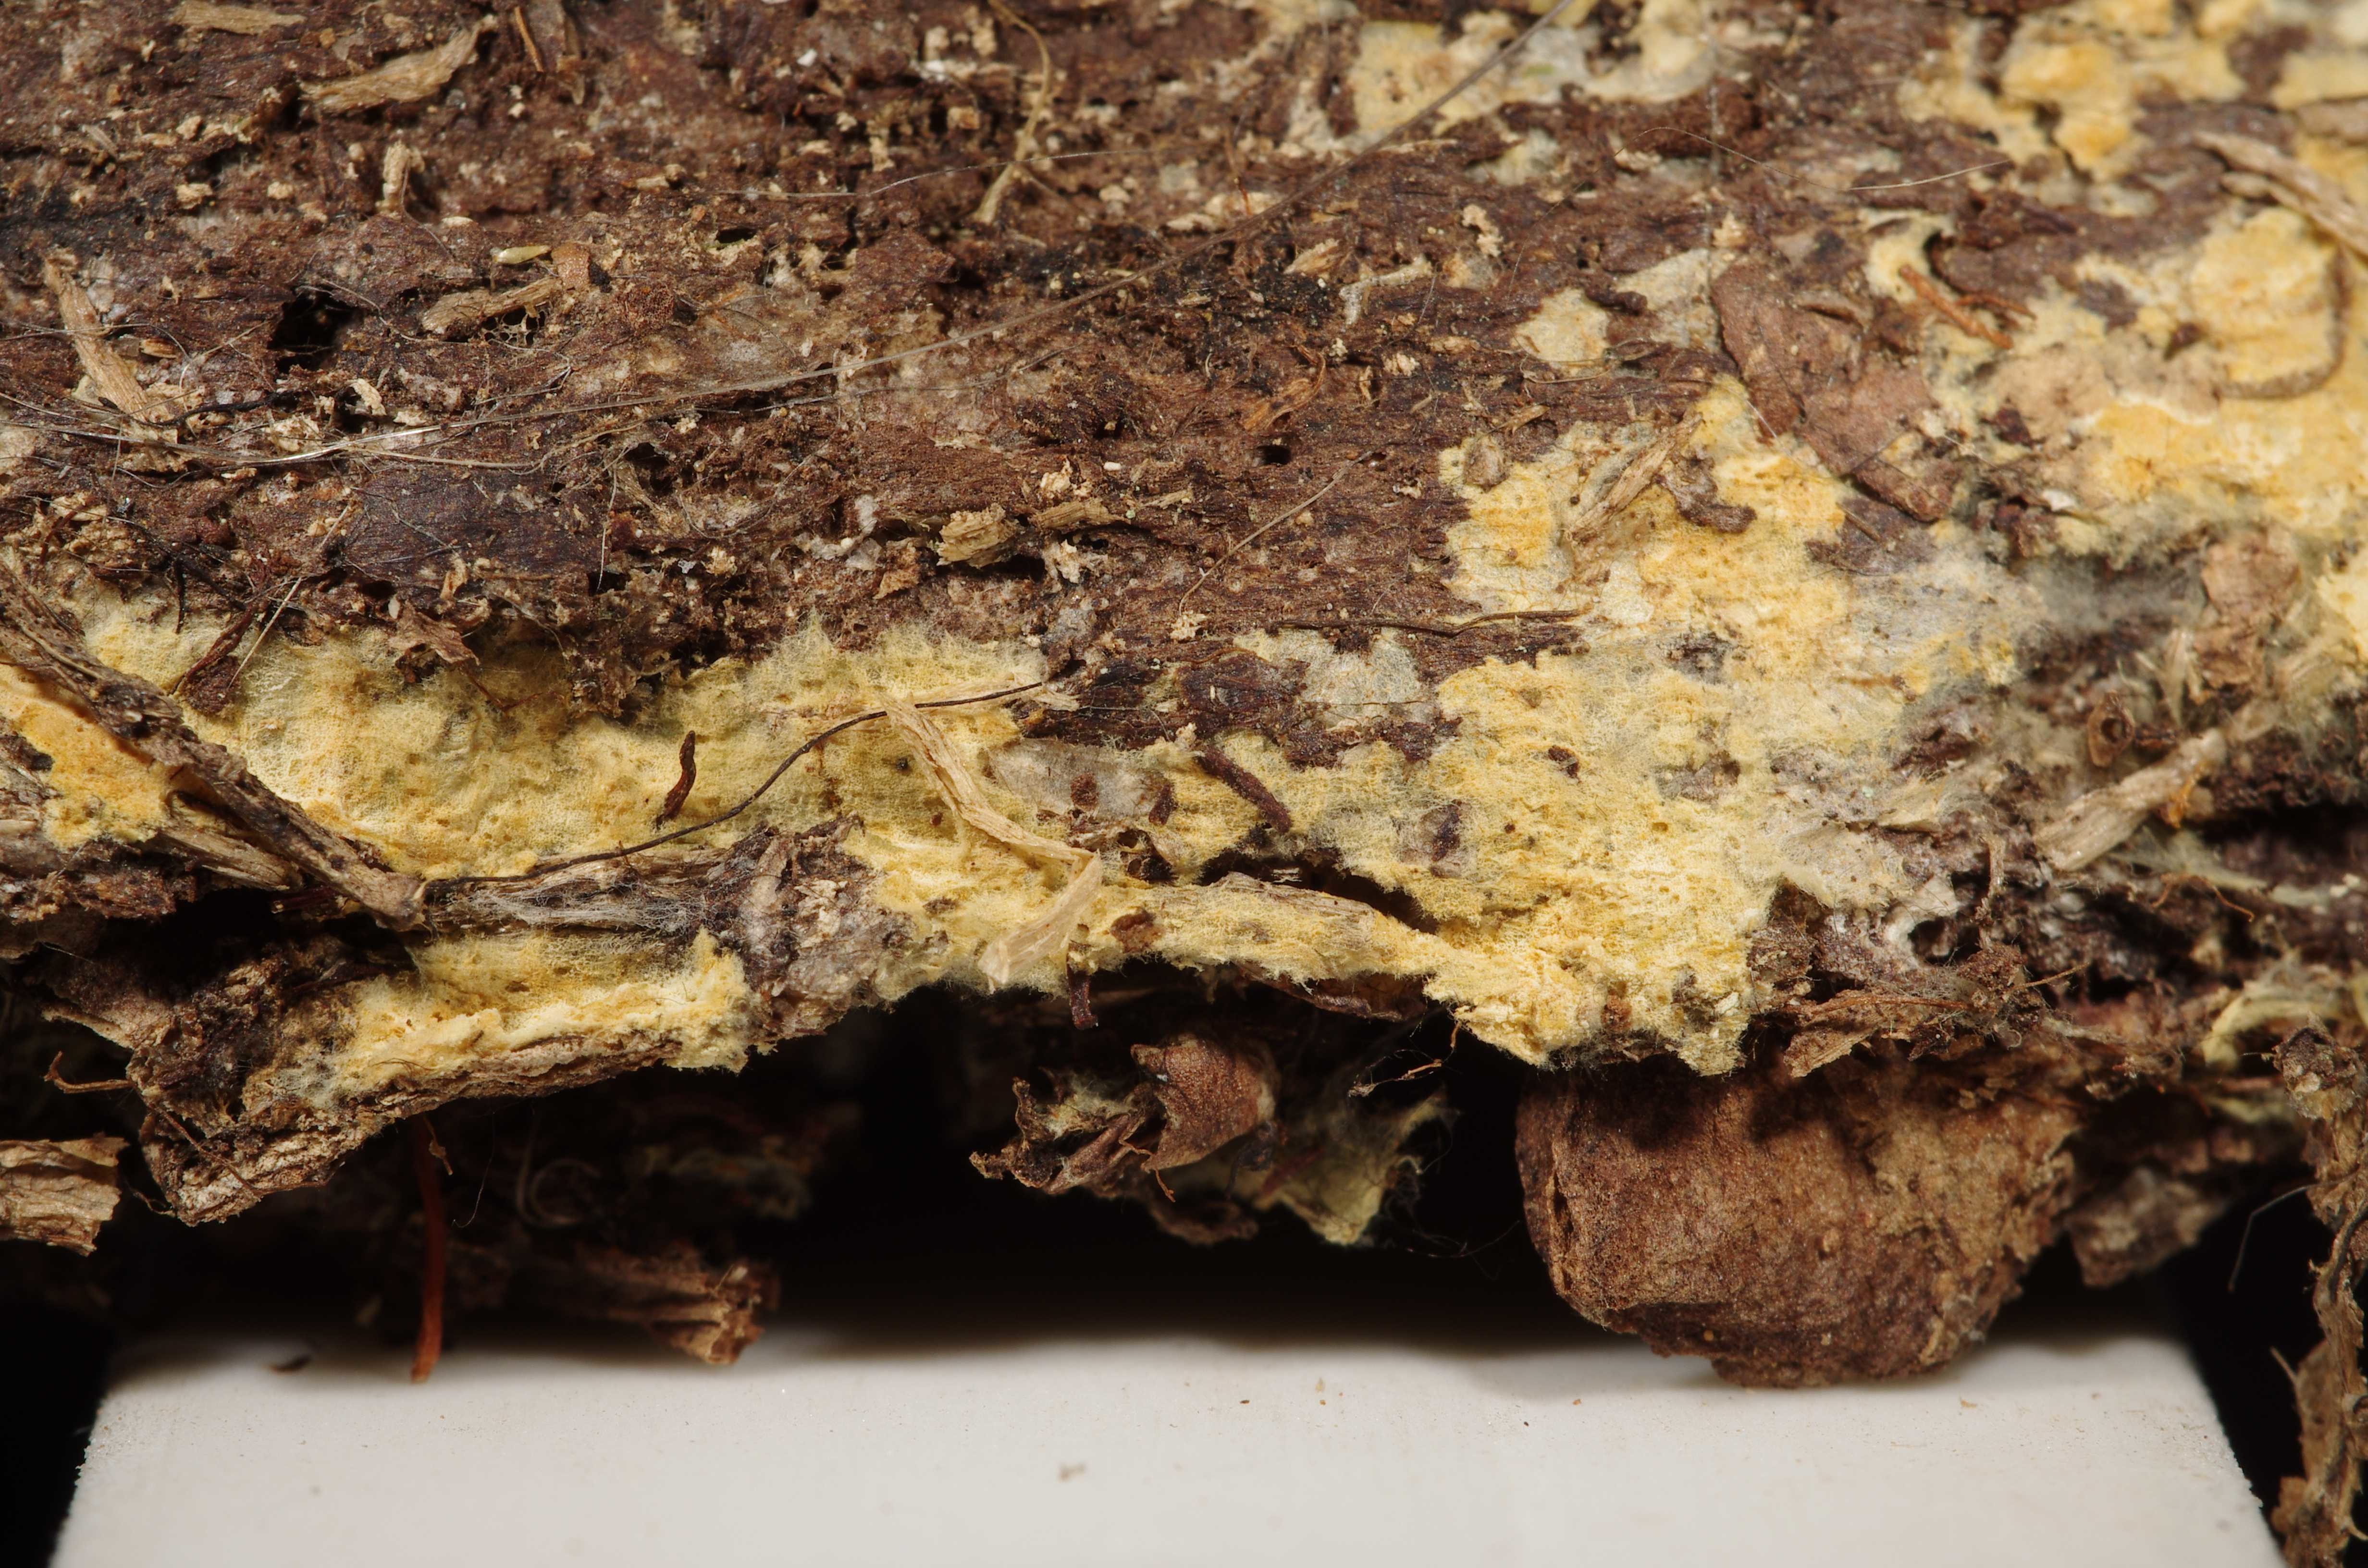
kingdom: Fungi
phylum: Basidiomycota
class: Agaricomycetes
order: Atheliales
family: Atheliaceae
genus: Tretomyces
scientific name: Tretomyces lutescens
